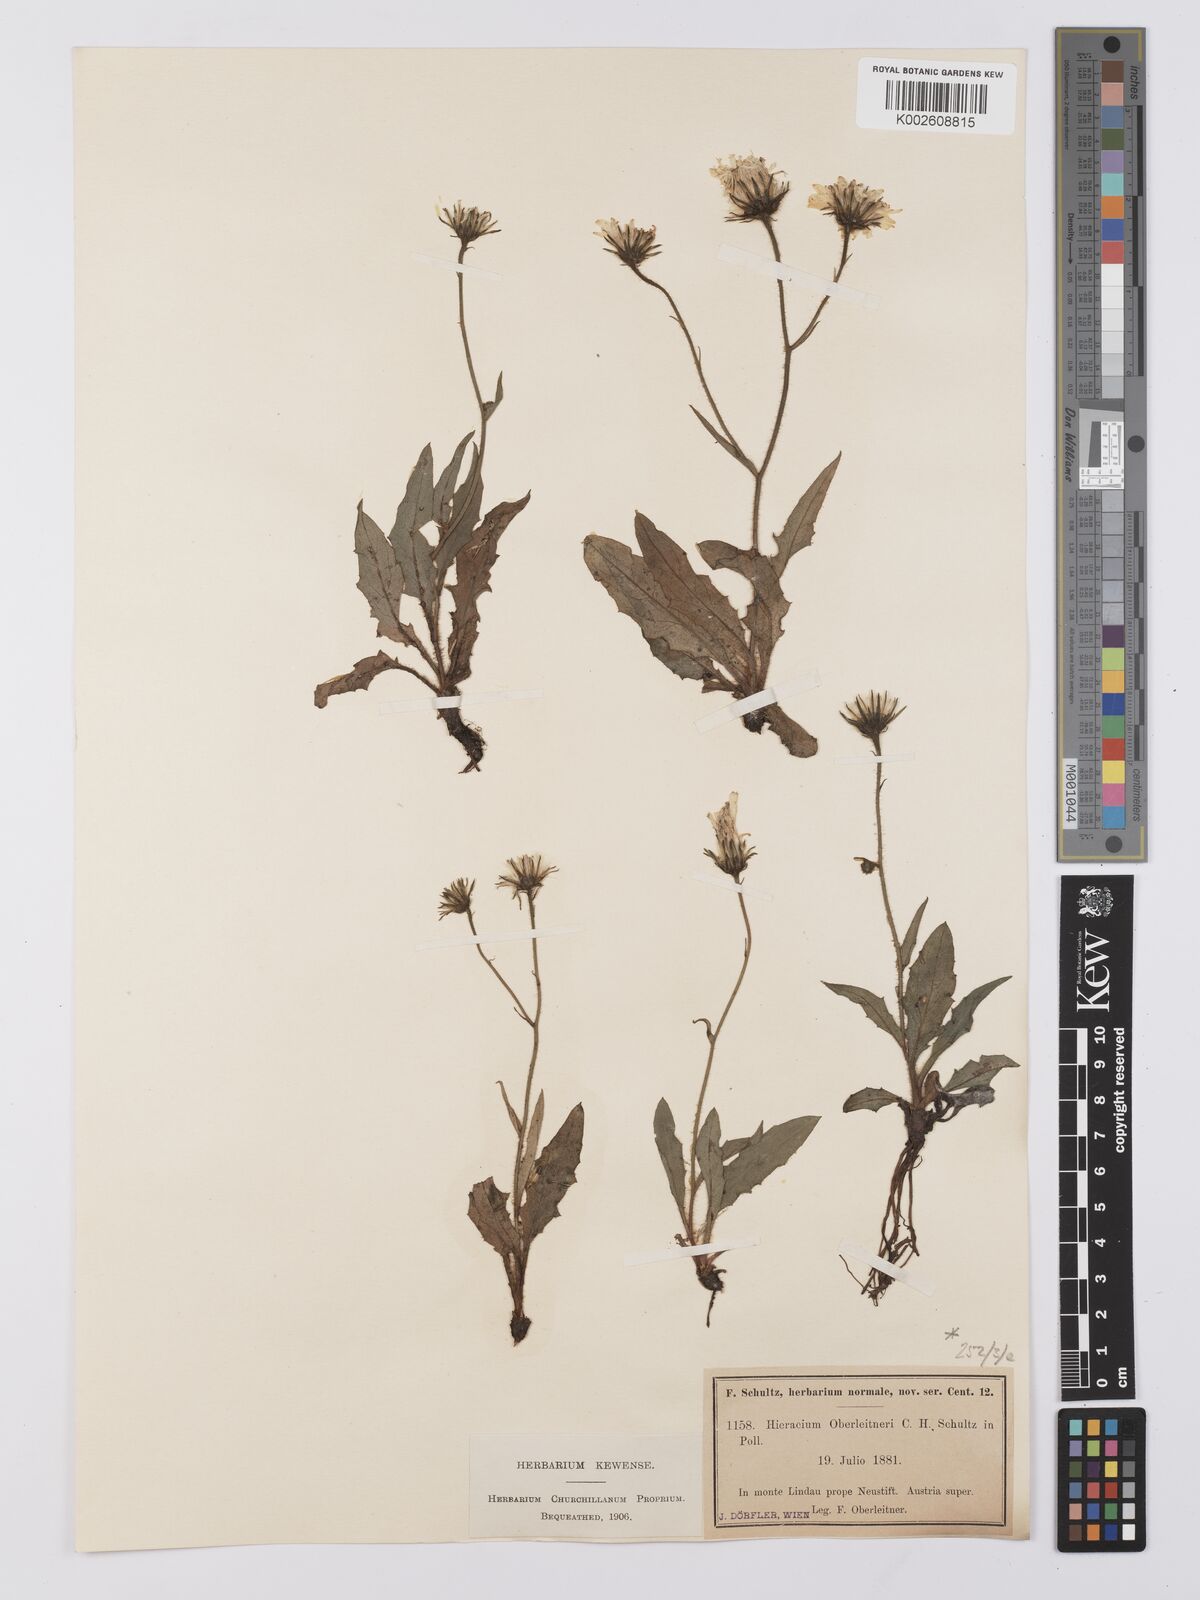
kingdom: Plantae
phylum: Tracheophyta
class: Magnoliopsida
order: Asterales
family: Asteraceae
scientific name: Asteraceae
